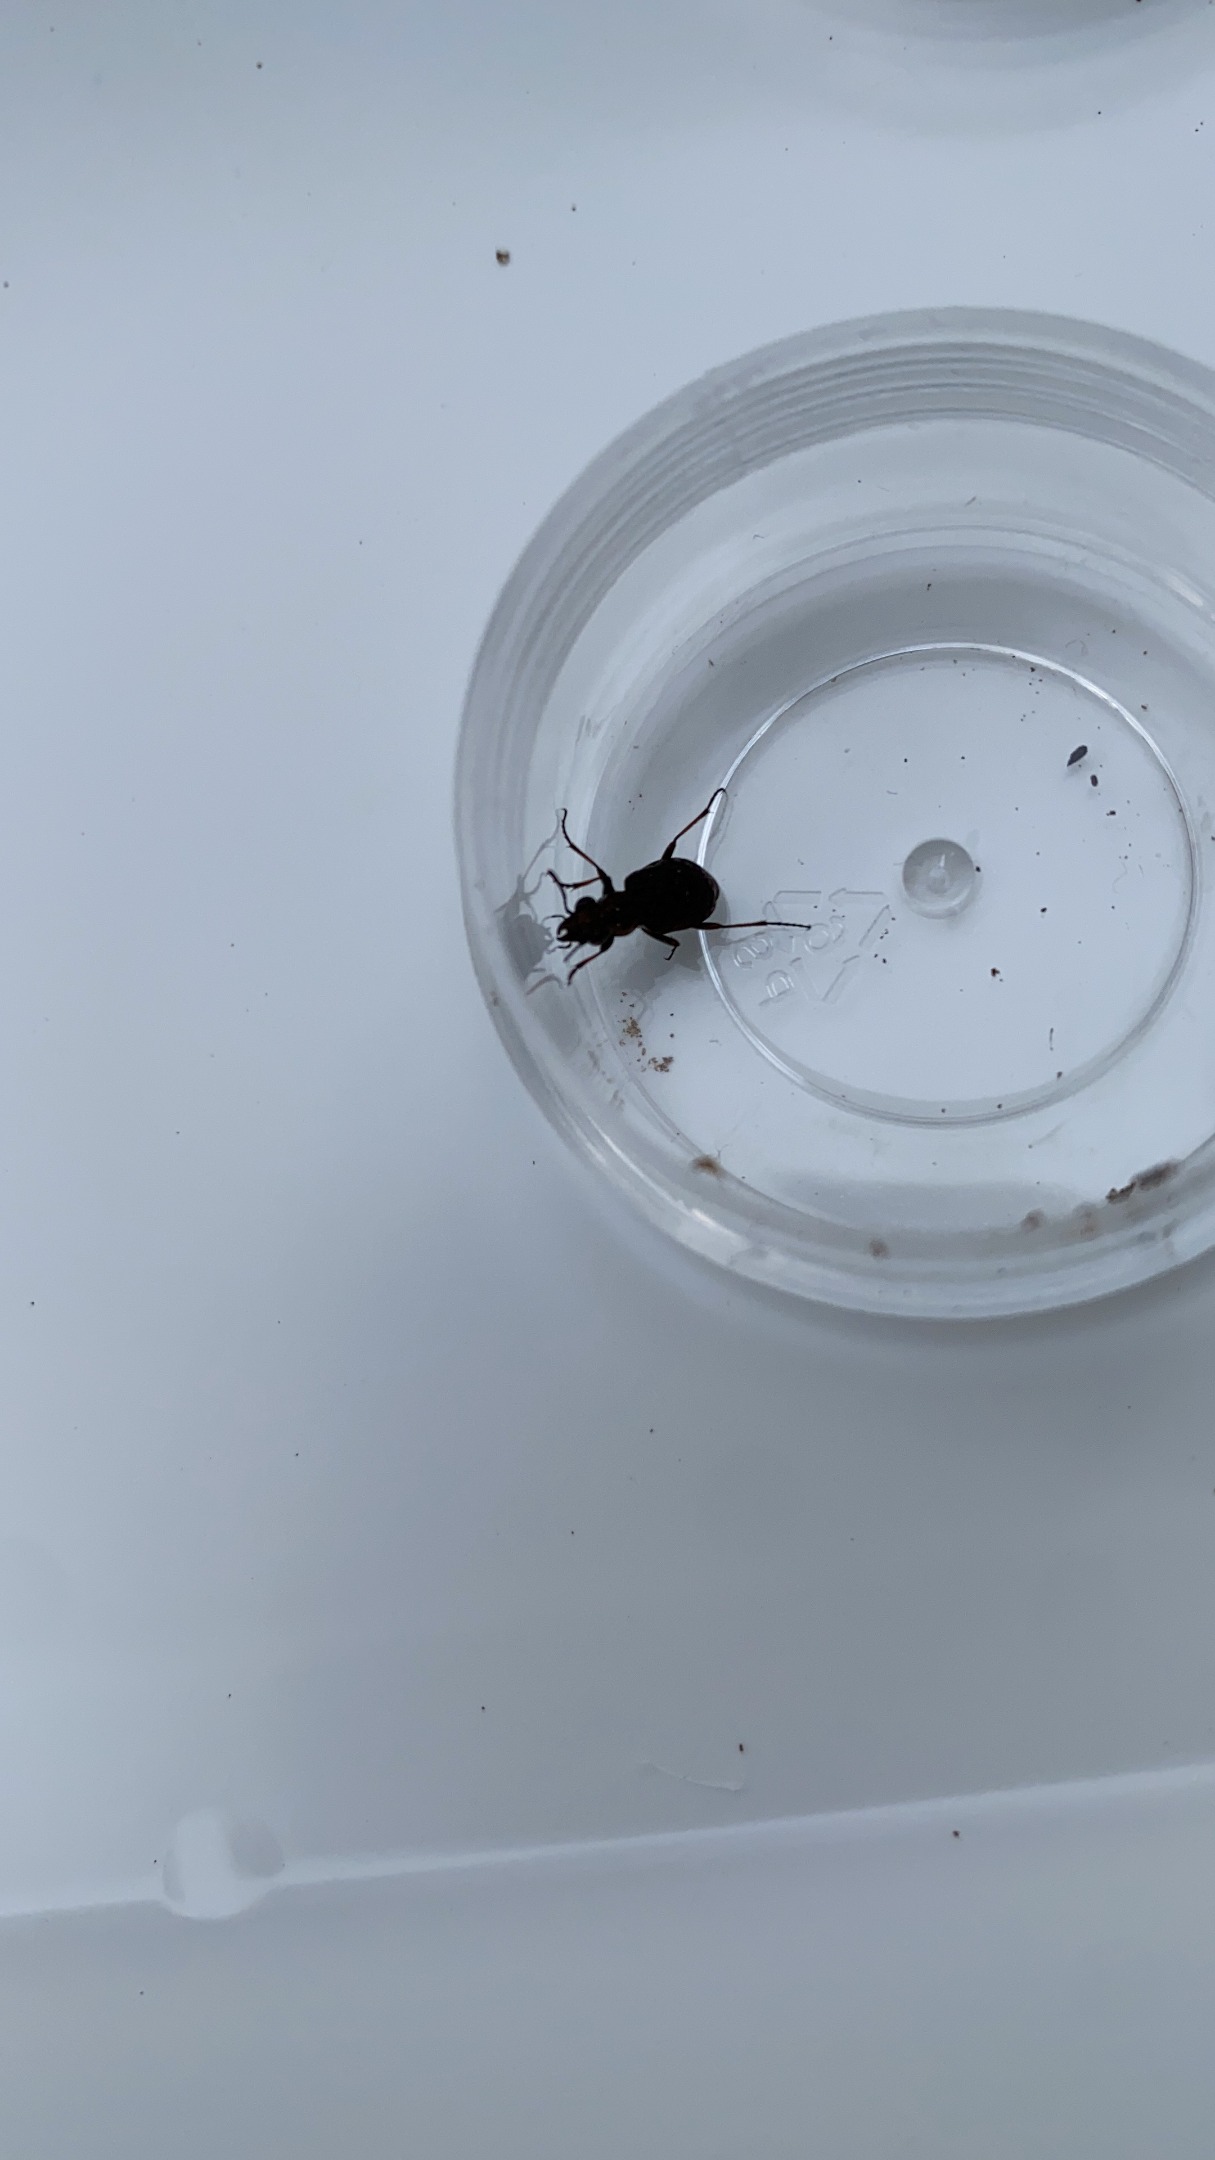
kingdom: Animalia
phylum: Arthropoda
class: Insecta
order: Coleoptera
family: Carabidae
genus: Elaphrus
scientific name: Elaphrus
